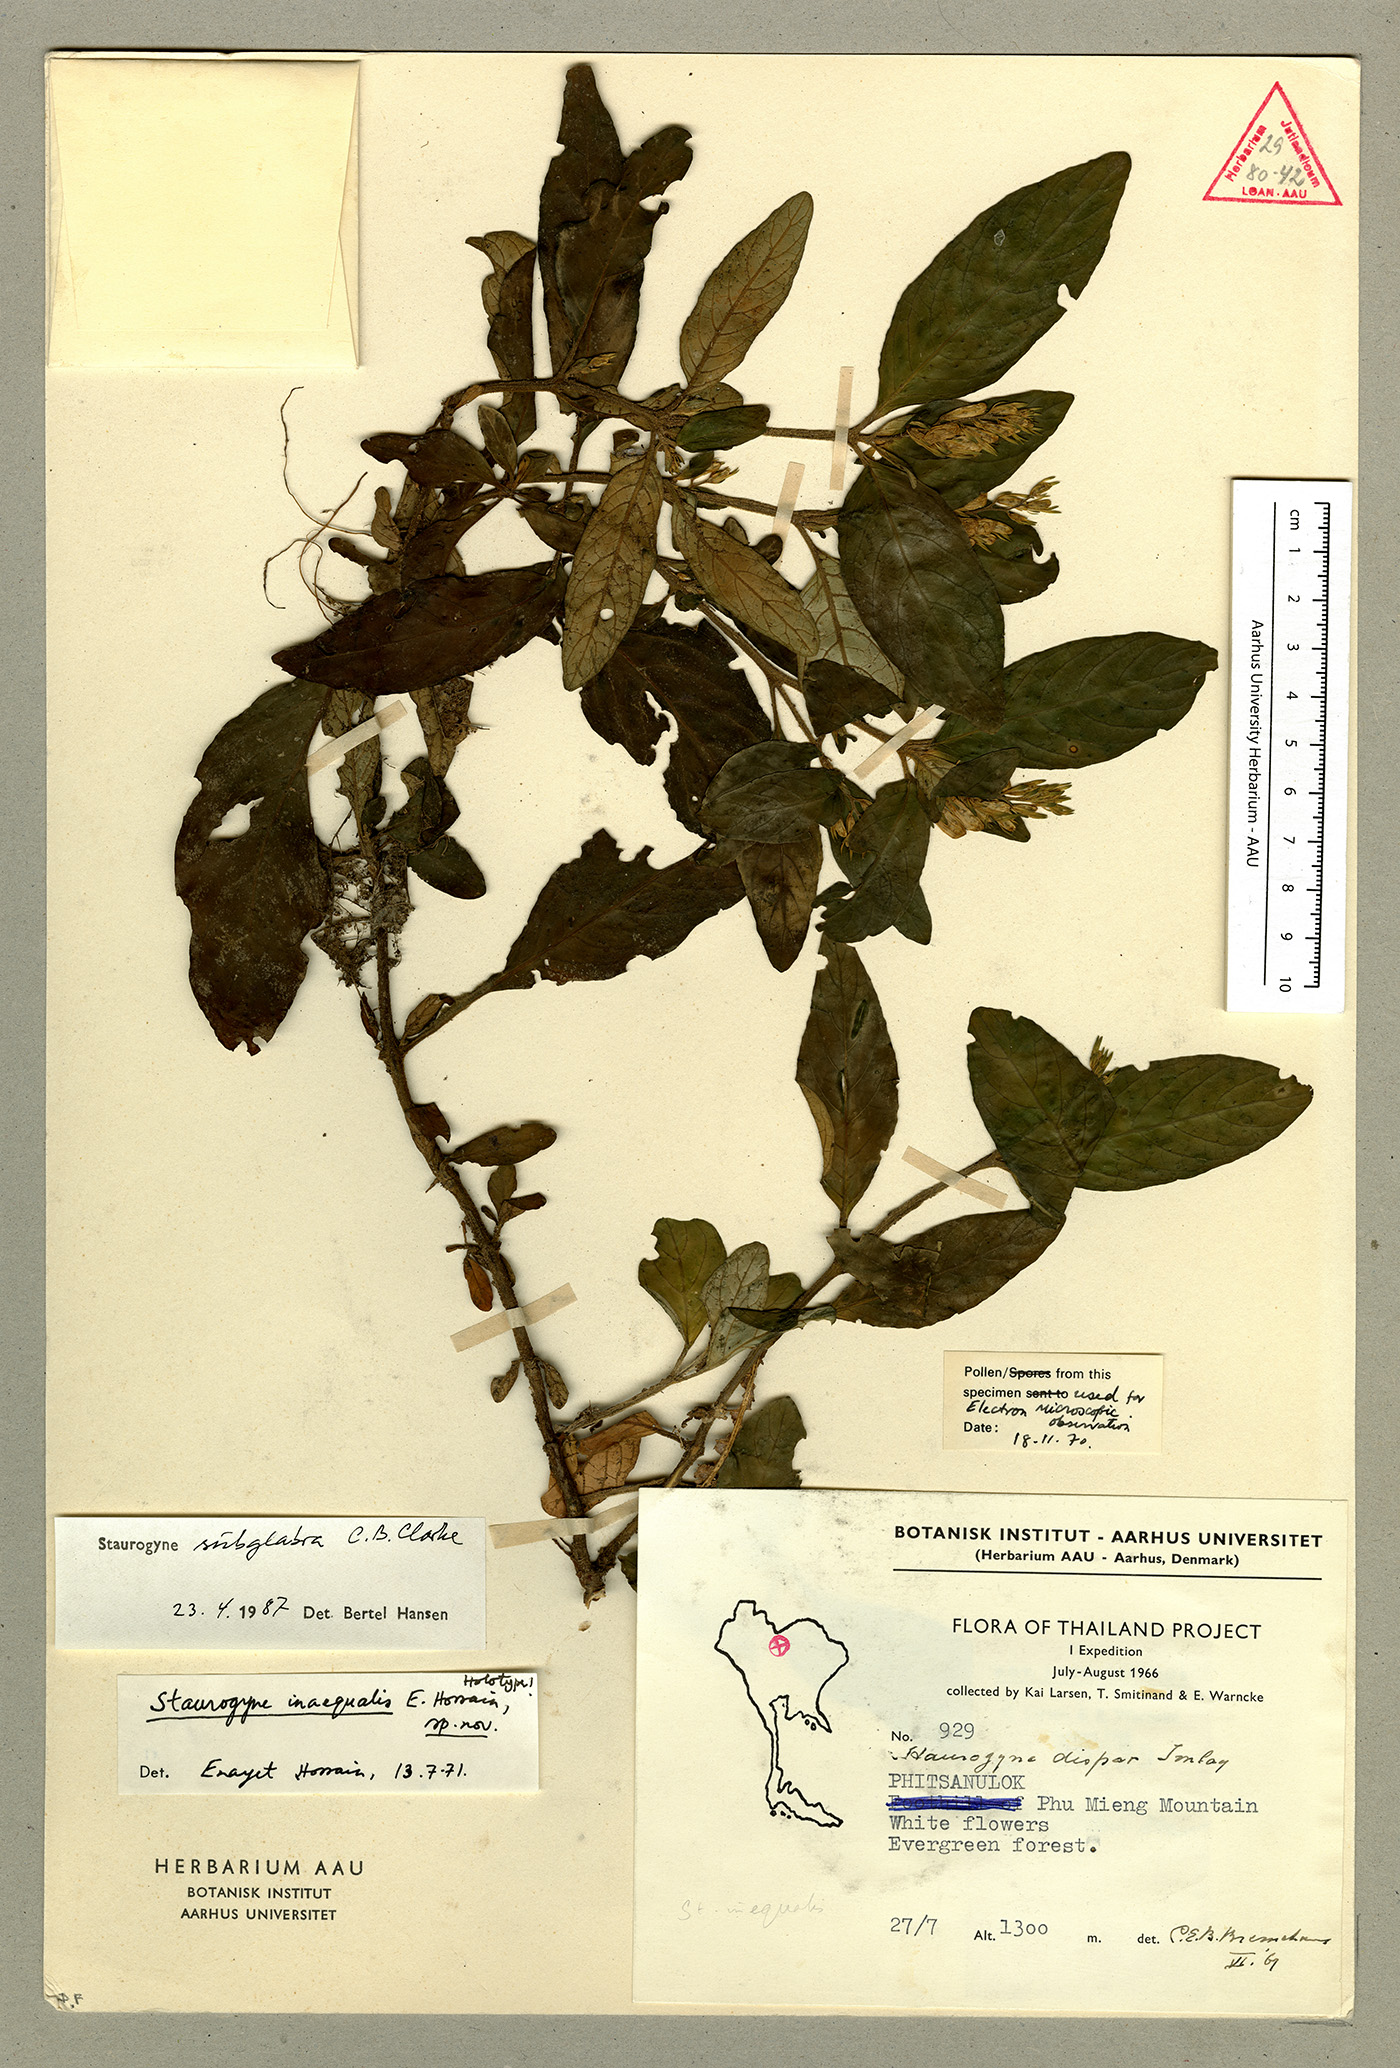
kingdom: Plantae
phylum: Tracheophyta
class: Magnoliopsida
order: Lamiales
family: Acanthaceae
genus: Staurogyne
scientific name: Staurogyne subglabra
